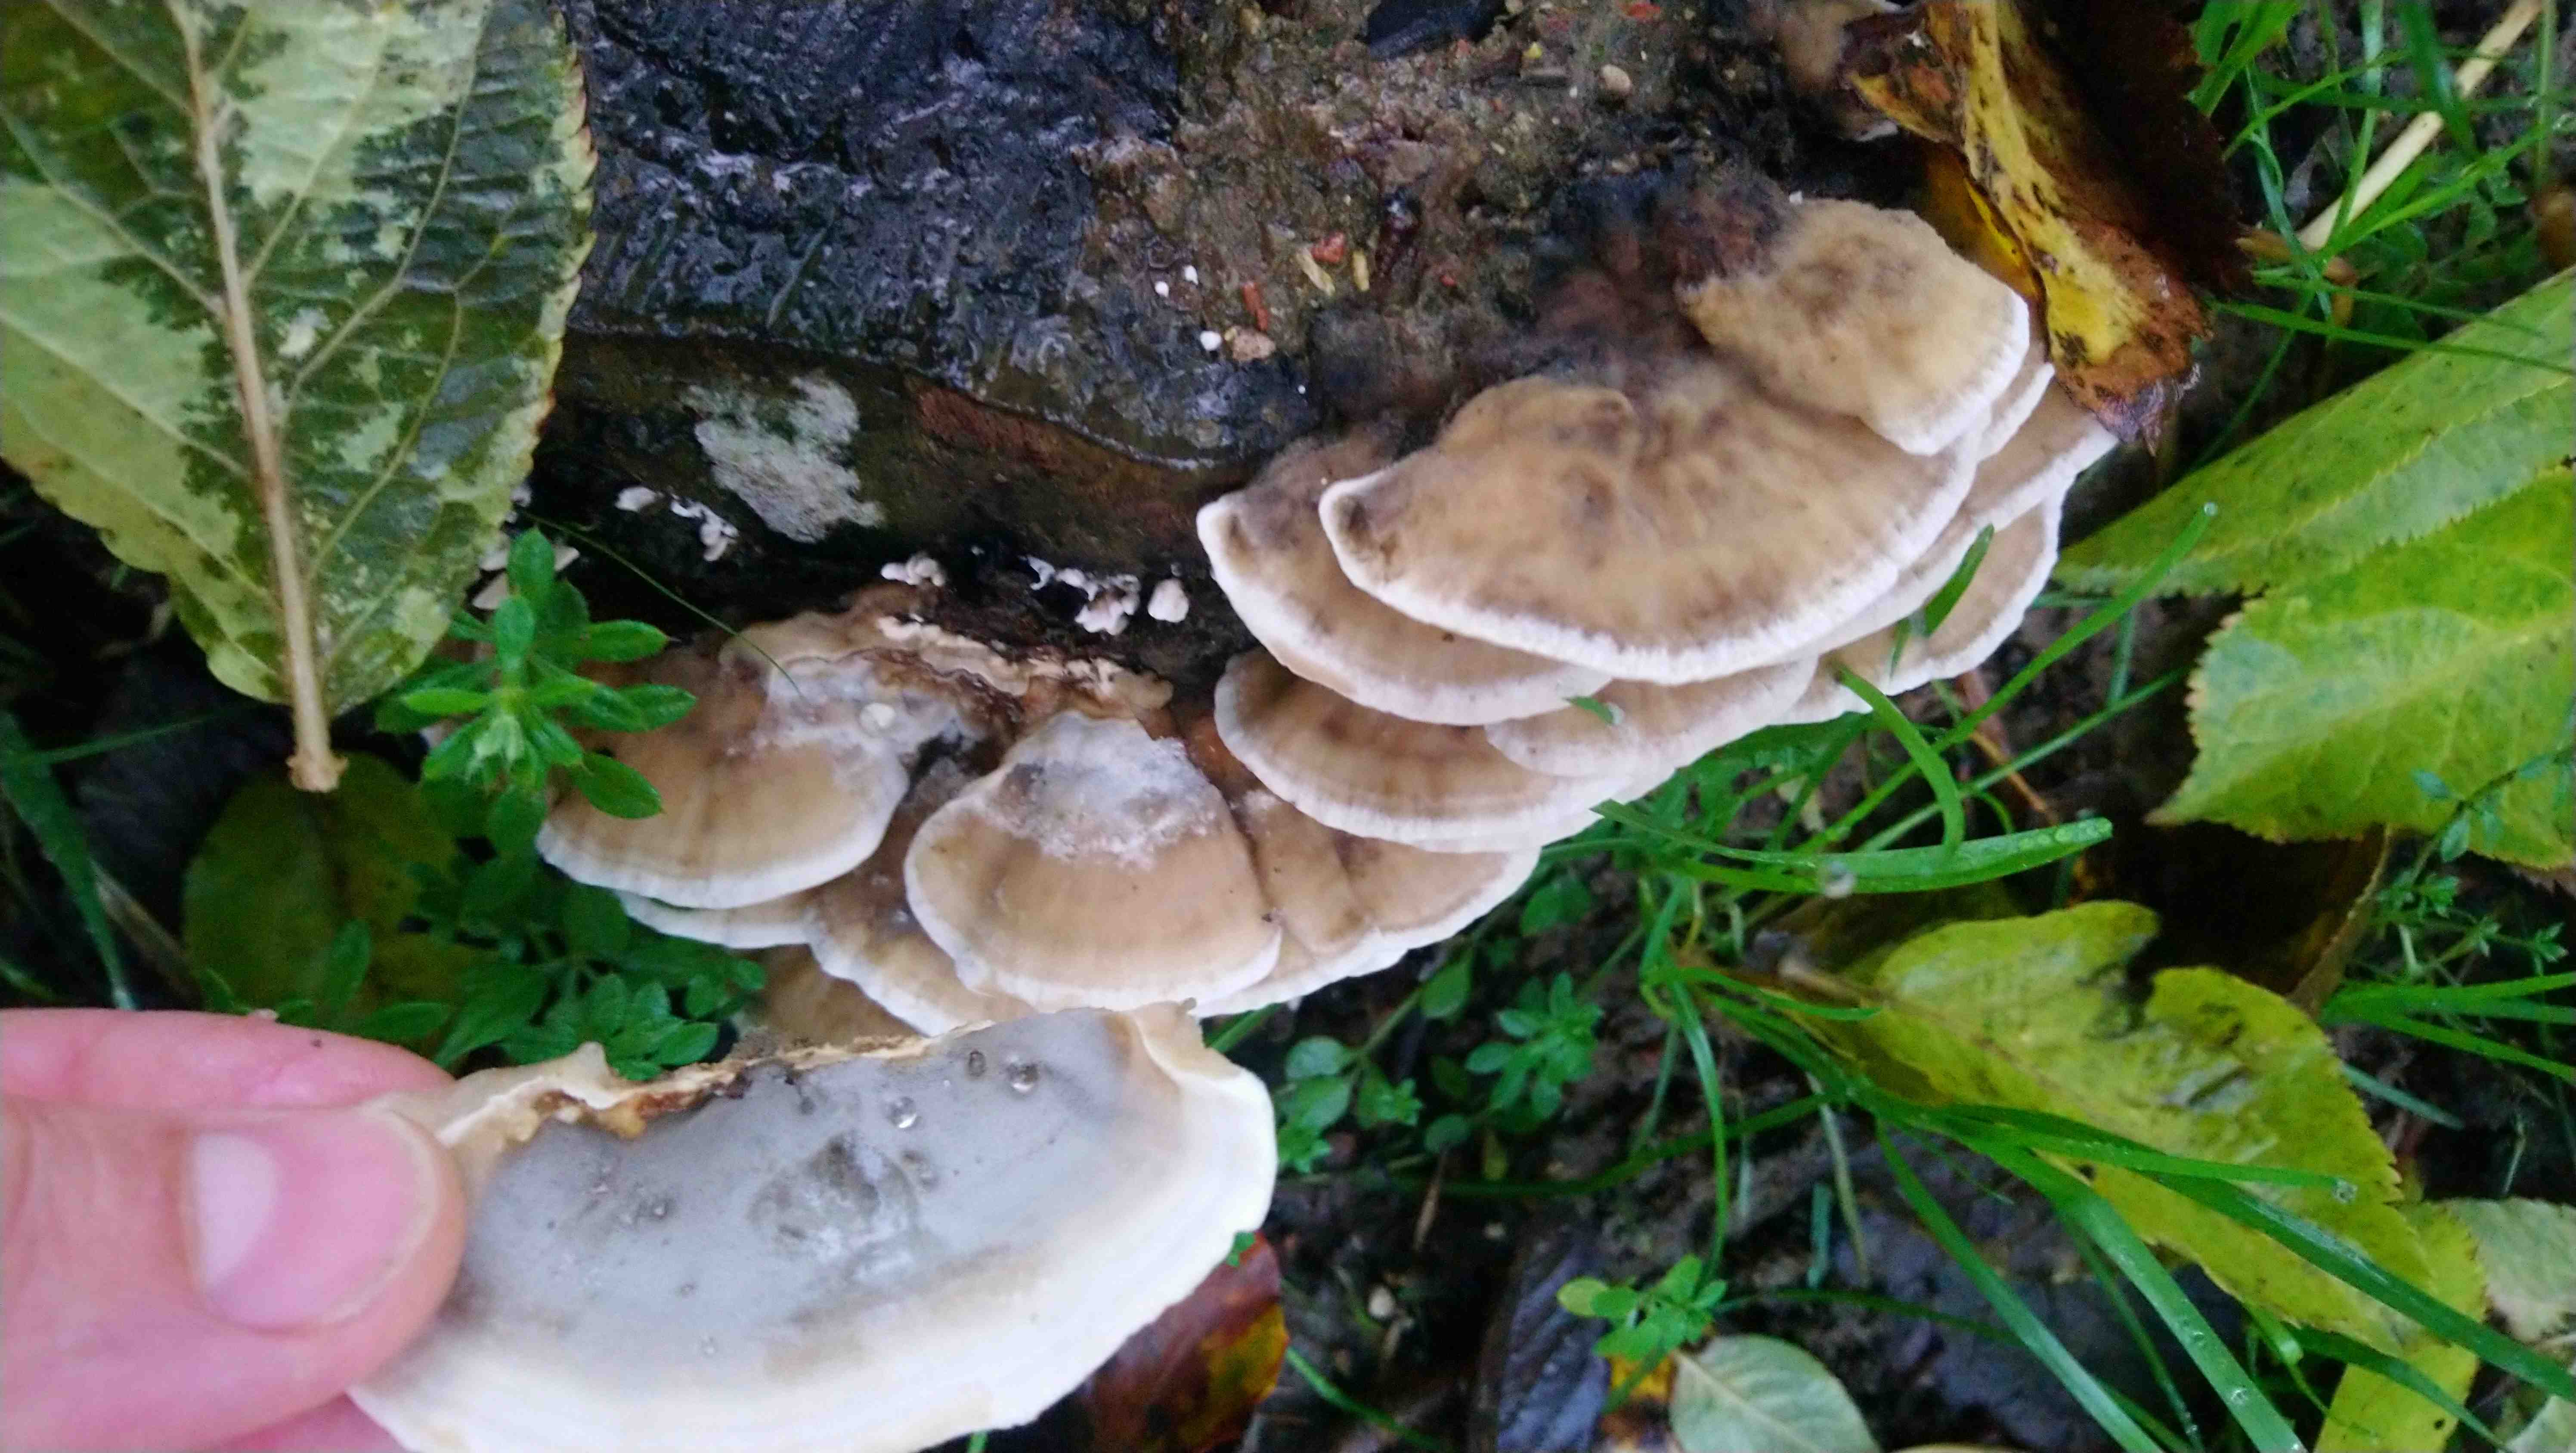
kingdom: Fungi
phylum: Basidiomycota
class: Agaricomycetes
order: Polyporales
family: Phanerochaetaceae
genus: Bjerkandera
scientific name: Bjerkandera adusta
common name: sveden sodporesvamp
